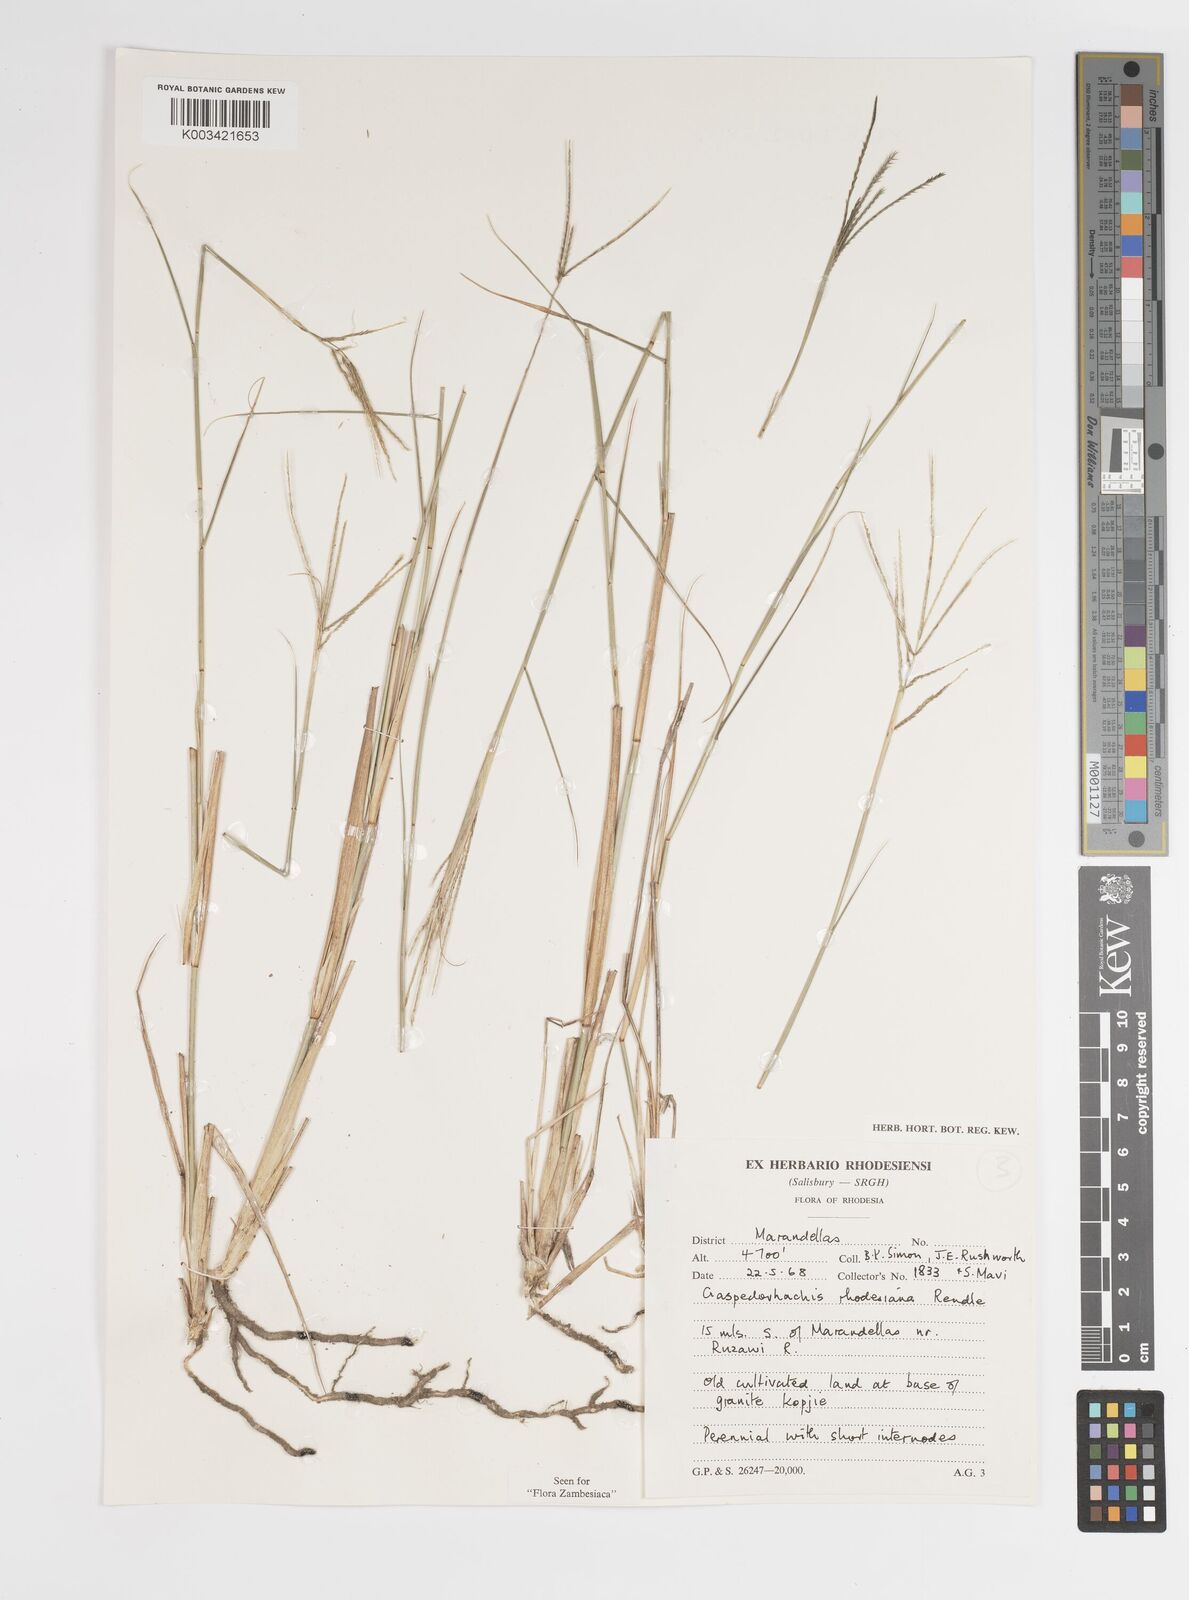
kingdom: Plantae
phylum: Tracheophyta
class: Liliopsida
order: Poales
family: Poaceae
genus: Craspedorhachis
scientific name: Craspedorhachis rhodesiana
